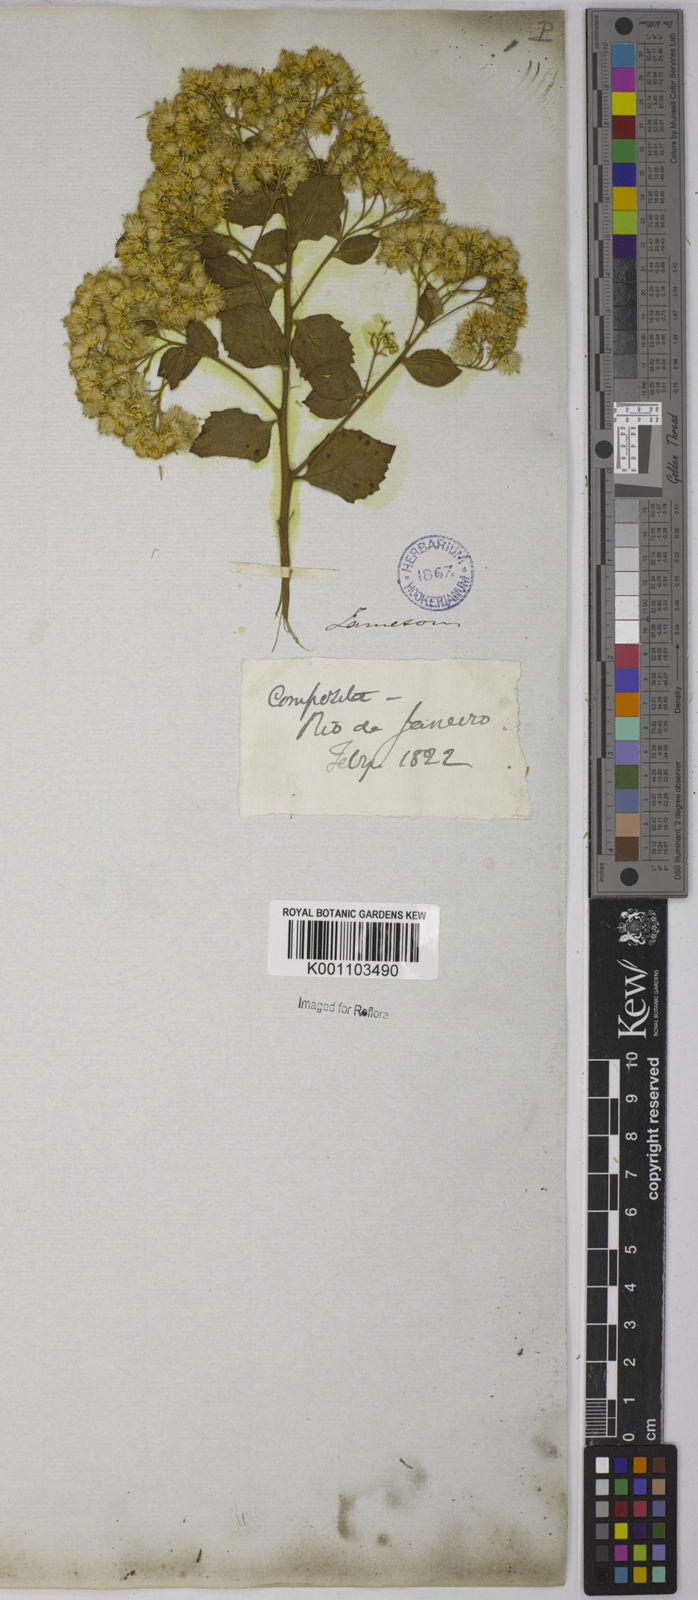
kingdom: Plantae
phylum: Tracheophyta
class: Magnoliopsida
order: Asterales
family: Asteraceae
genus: Pluchea
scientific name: Pluchea sagittalis
